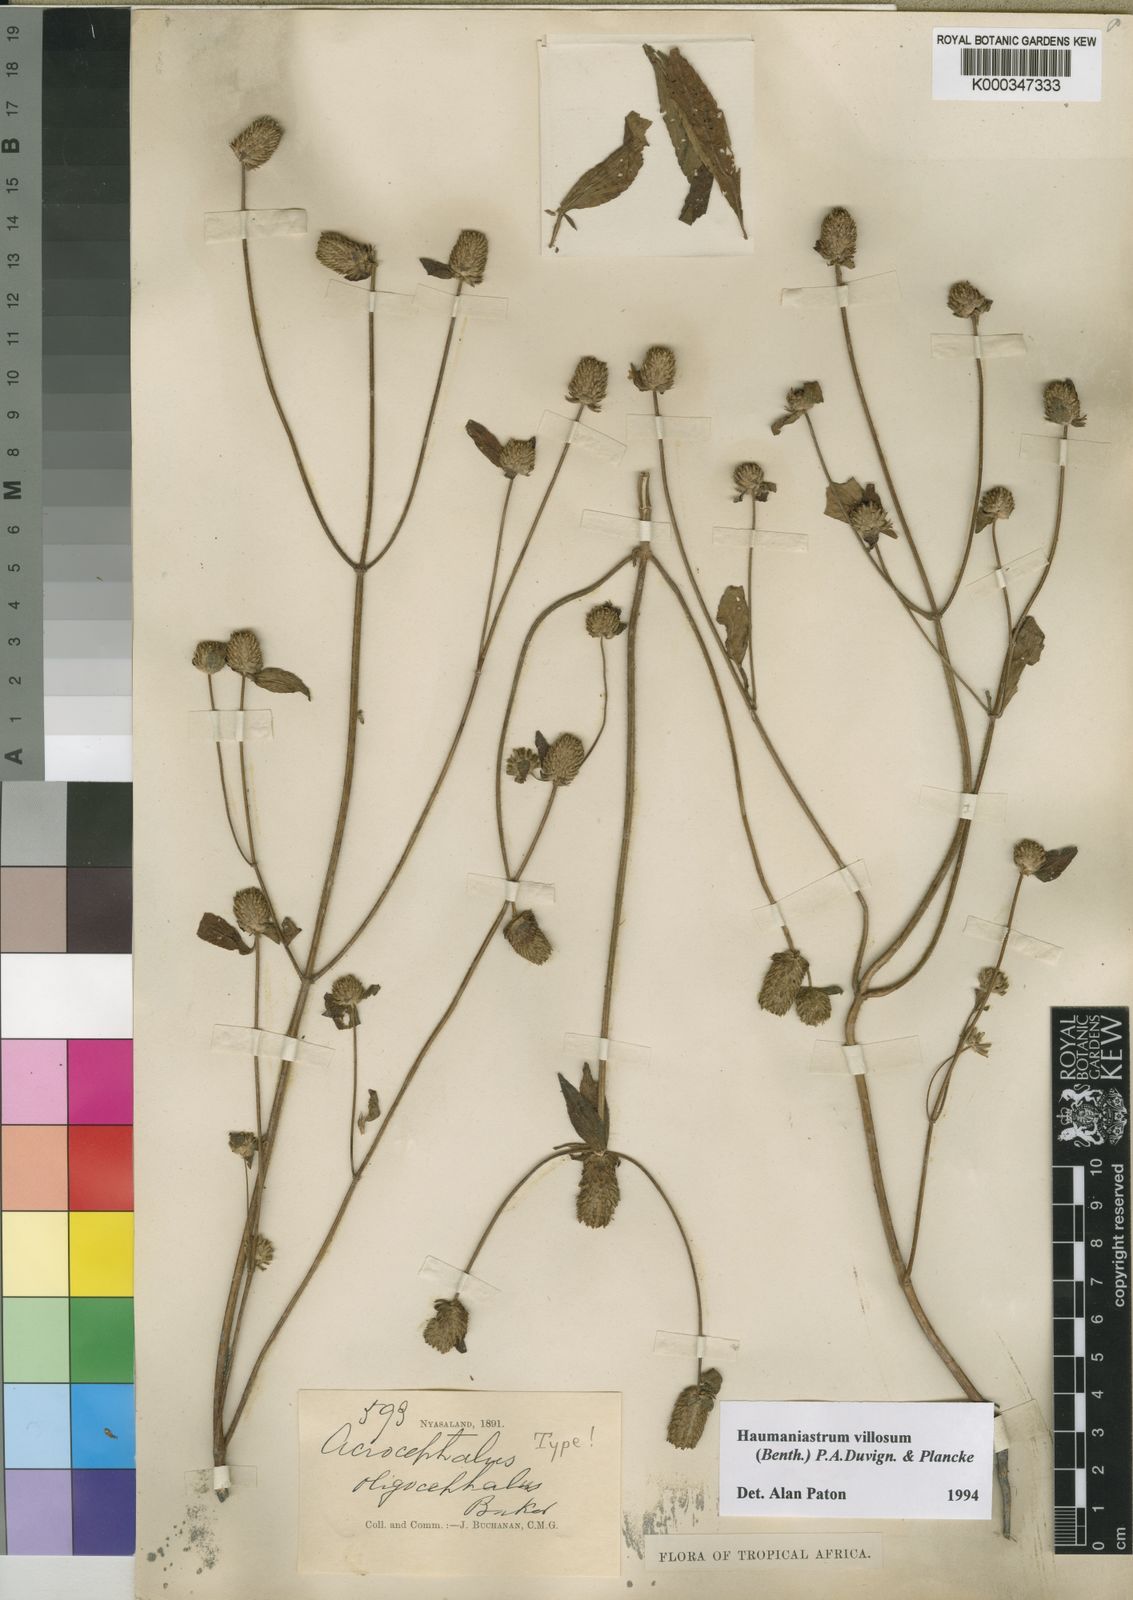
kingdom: Plantae
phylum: Tracheophyta
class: Magnoliopsida
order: Lamiales
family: Lamiaceae
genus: Haumaniastrum
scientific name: Haumaniastrum villosum
